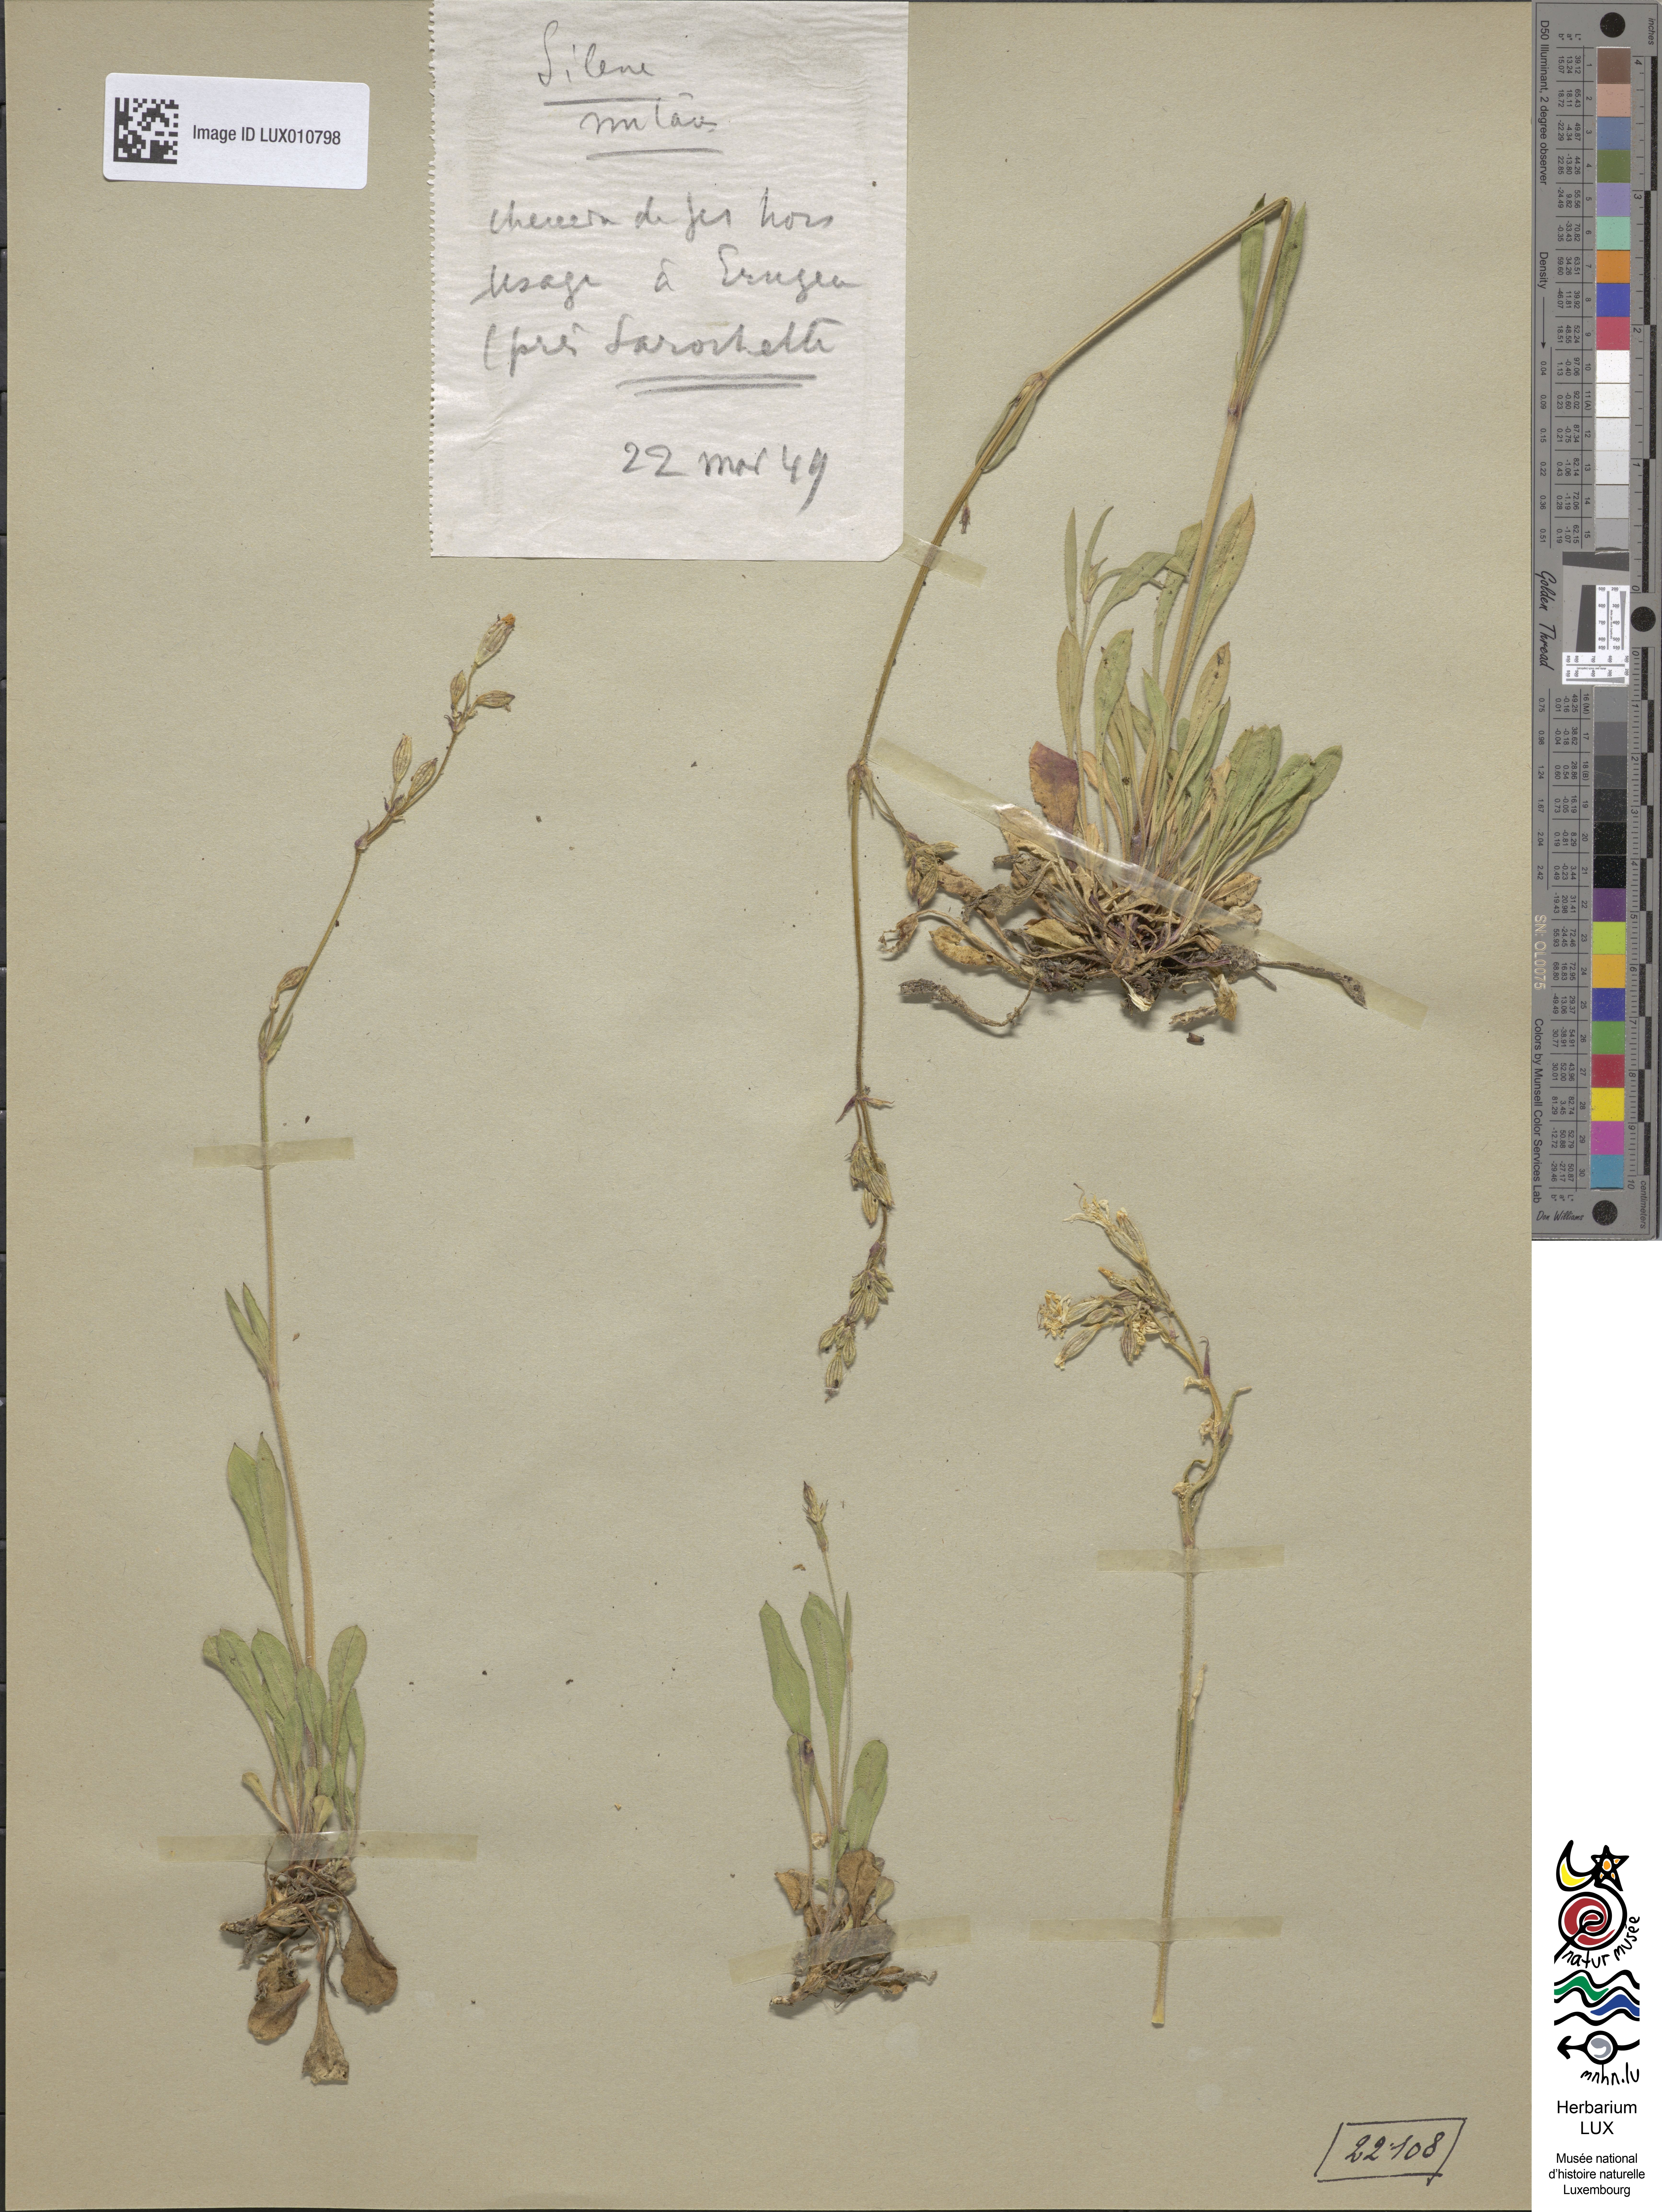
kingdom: Plantae
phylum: Tracheophyta
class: Magnoliopsida
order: Caryophyllales
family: Caryophyllaceae
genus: Silene
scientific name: Silene nutans
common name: Nottingham catchfly
